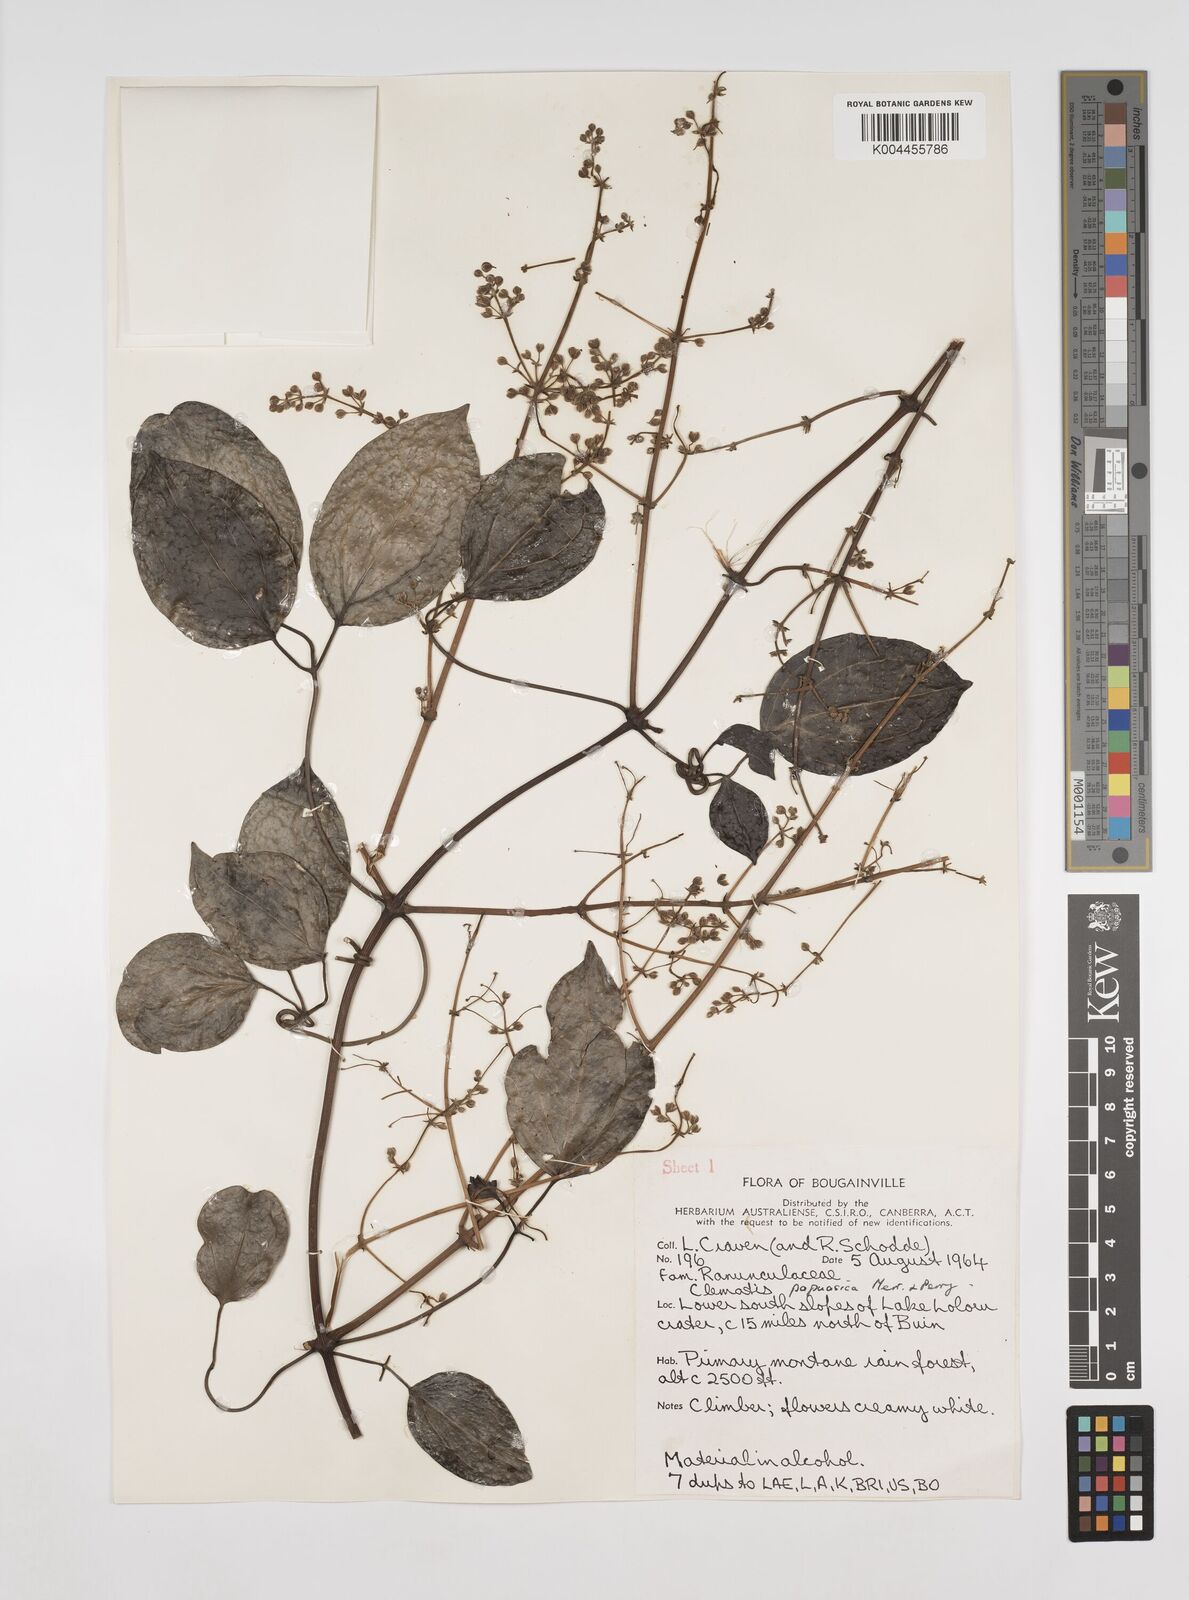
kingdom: Plantae
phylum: Tracheophyta
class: Magnoliopsida
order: Ranunculales
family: Ranunculaceae
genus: Clematis
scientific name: Clematis papuasica
